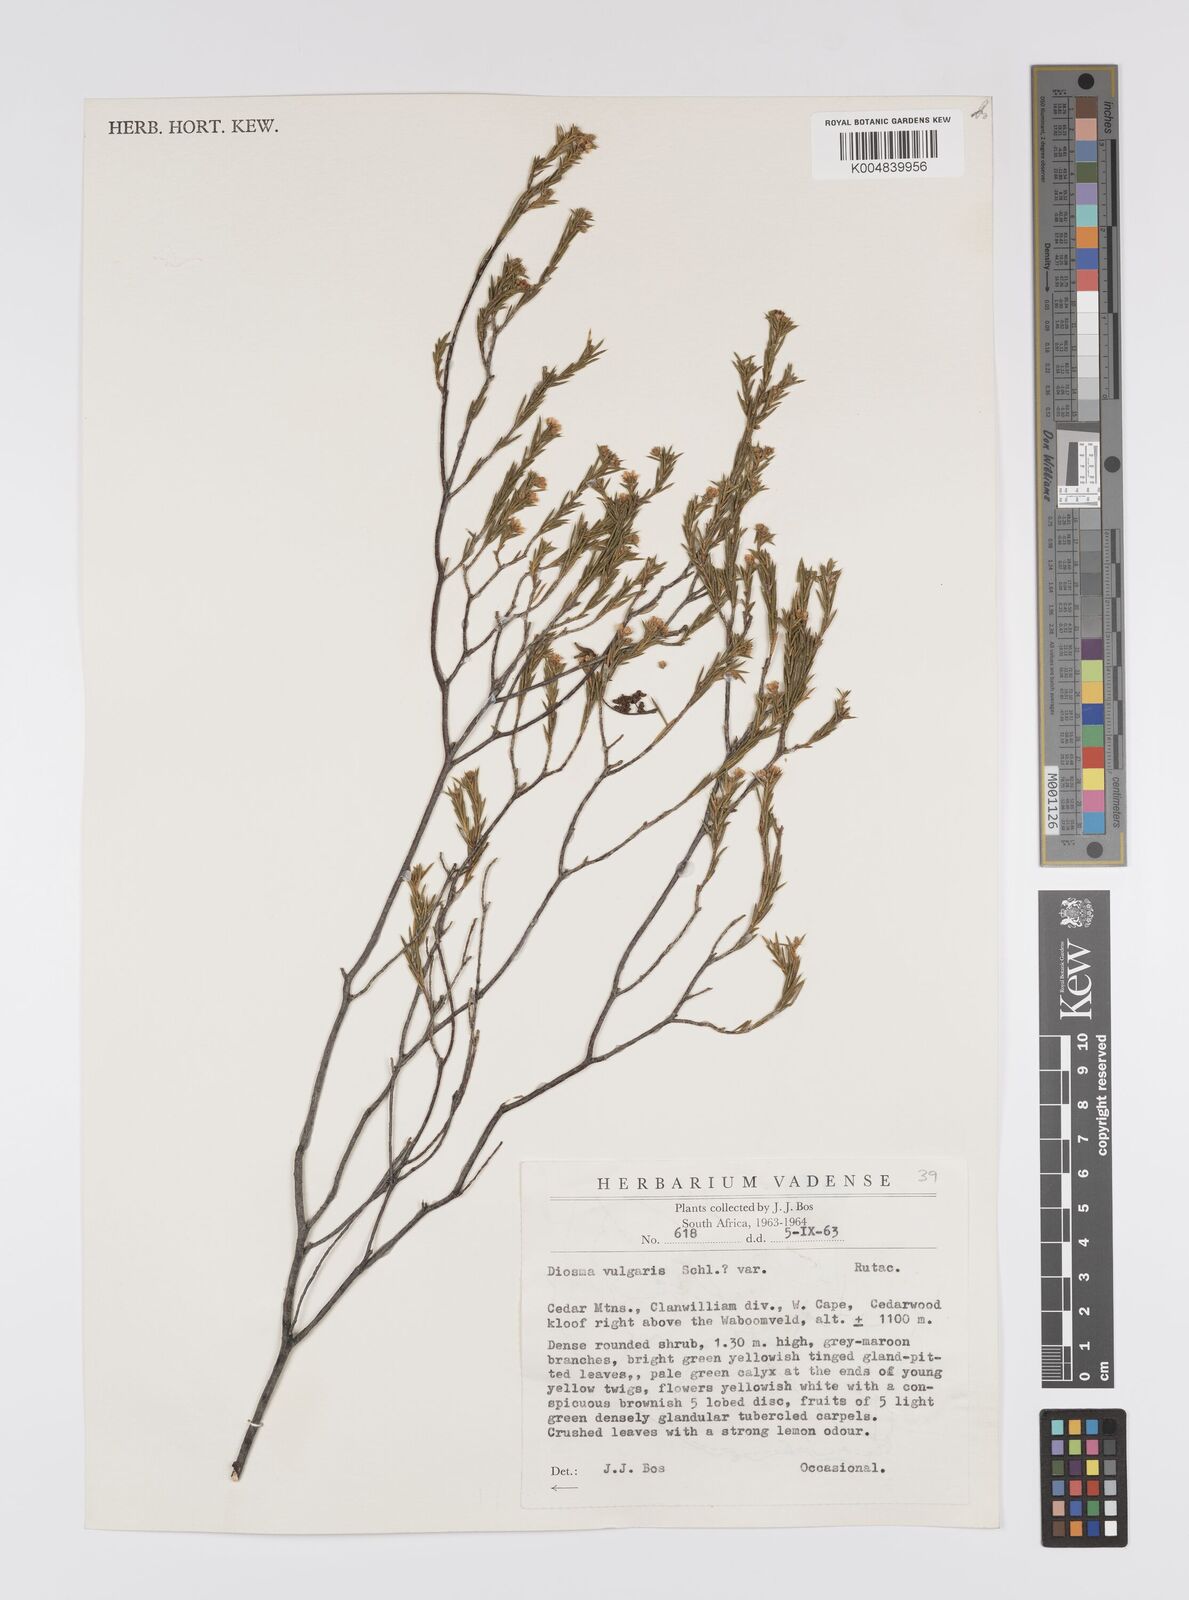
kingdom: Plantae
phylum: Tracheophyta
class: Magnoliopsida
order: Sapindales
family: Rutaceae
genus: Diosma
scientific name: Diosma acmaeophylla
